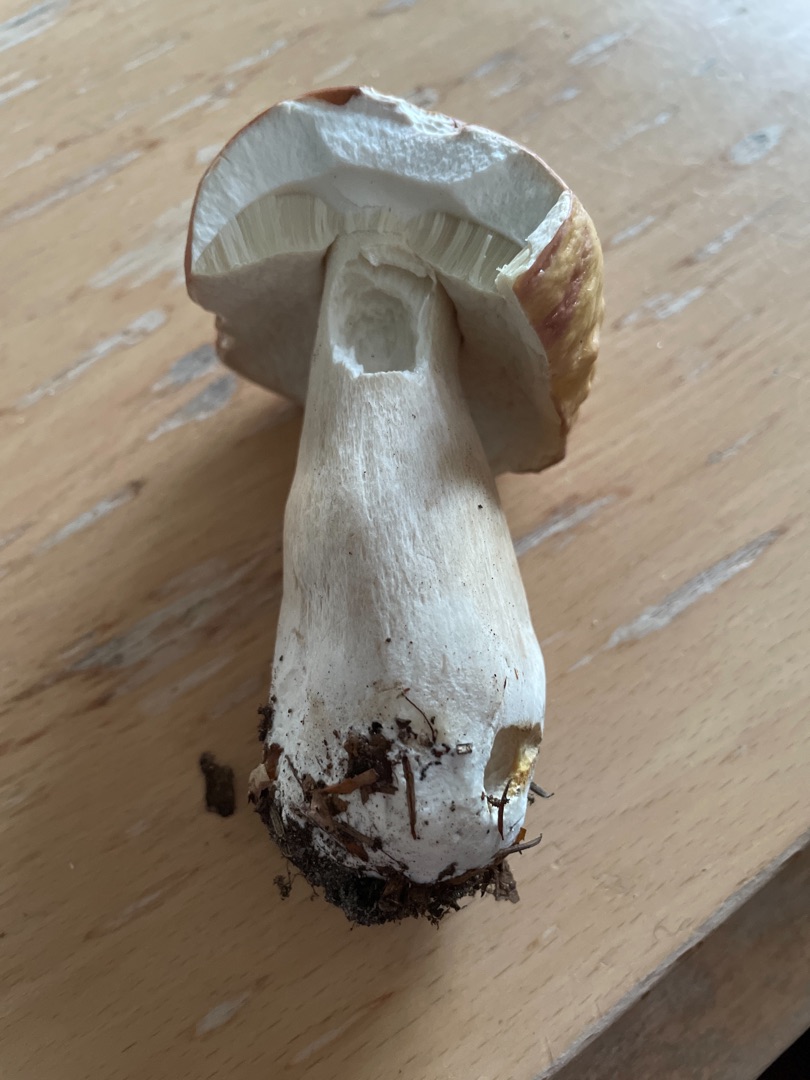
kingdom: Fungi
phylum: Basidiomycota
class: Agaricomycetes
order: Boletales
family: Boletaceae
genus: Boletus
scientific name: Boletus edulis
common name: Spiselig rørhat/karl johan
